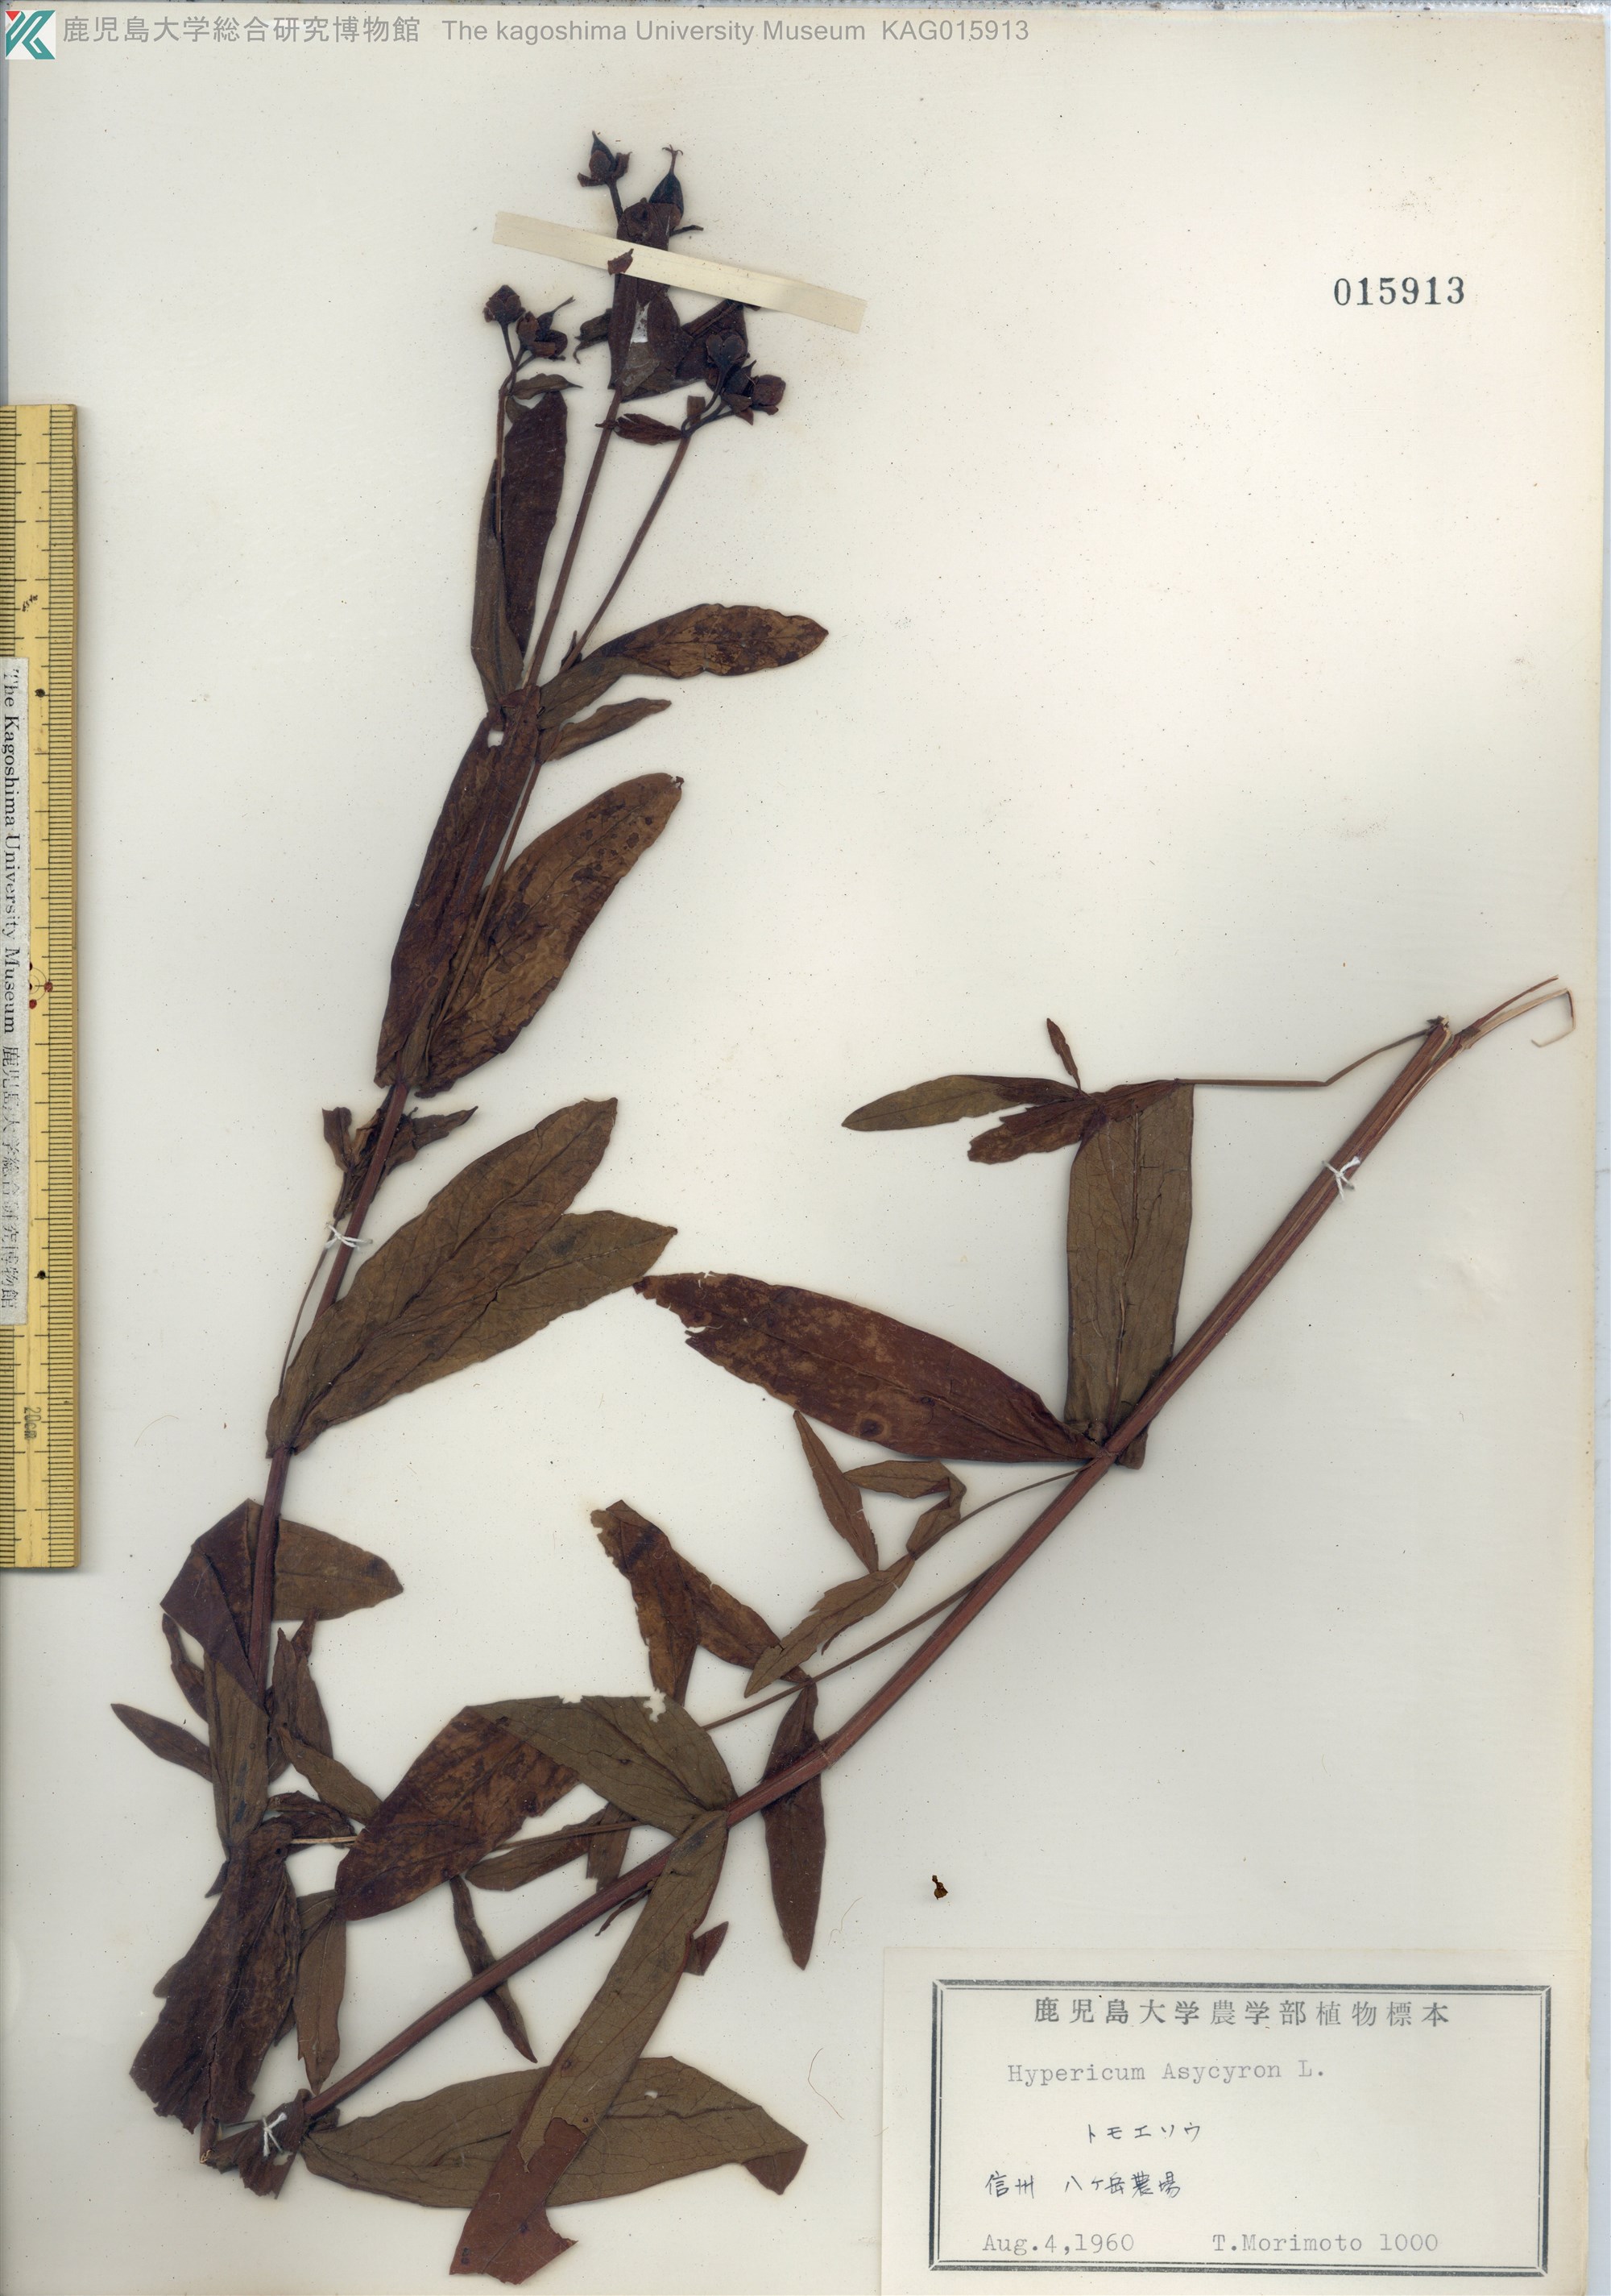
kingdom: Plantae
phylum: Tracheophyta
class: Magnoliopsida
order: Malpighiales
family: Hypericaceae
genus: Hypericum
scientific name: Hypericum ascyron
